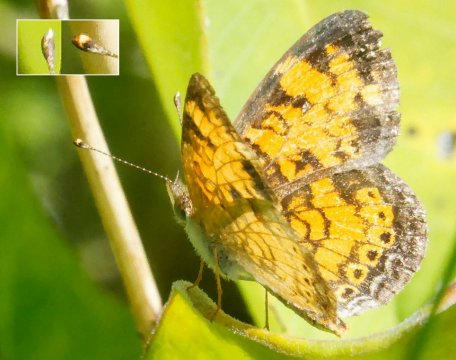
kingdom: Animalia
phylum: Arthropoda
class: Insecta
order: Lepidoptera
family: Nymphalidae
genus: Phyciodes
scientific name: Phyciodes
